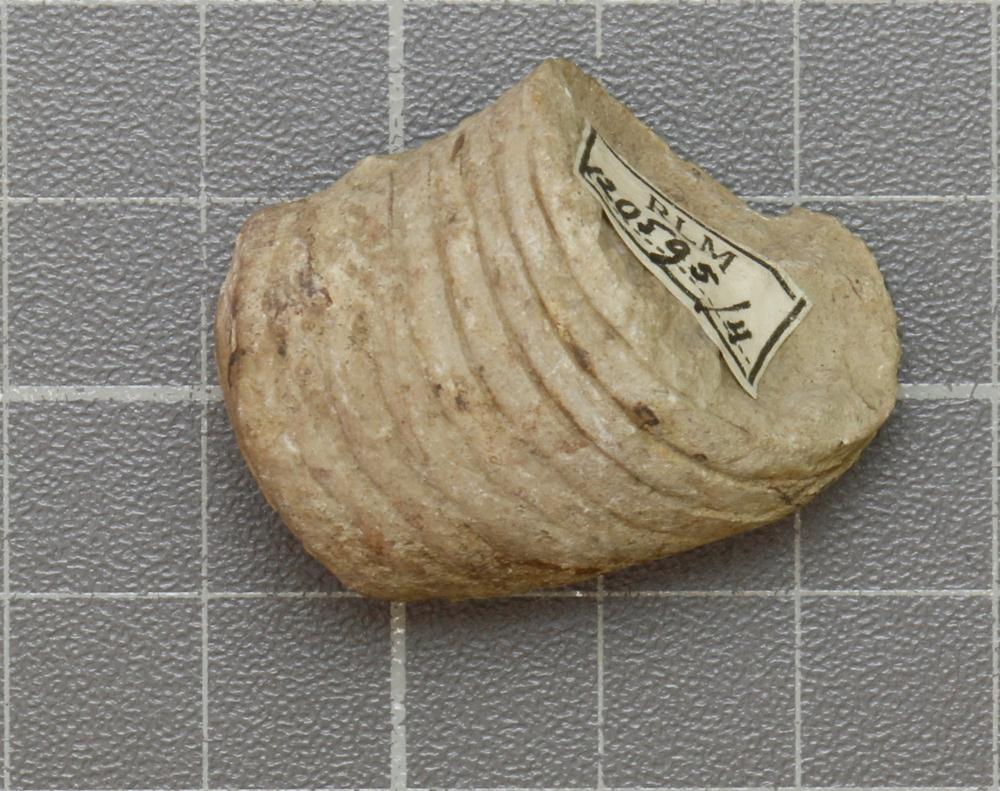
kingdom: Animalia
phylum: Mollusca
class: Cephalopoda
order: Nautilida
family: Nautilidae
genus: Richardsonoceras
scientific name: Richardsonoceras sinuososeptatum
